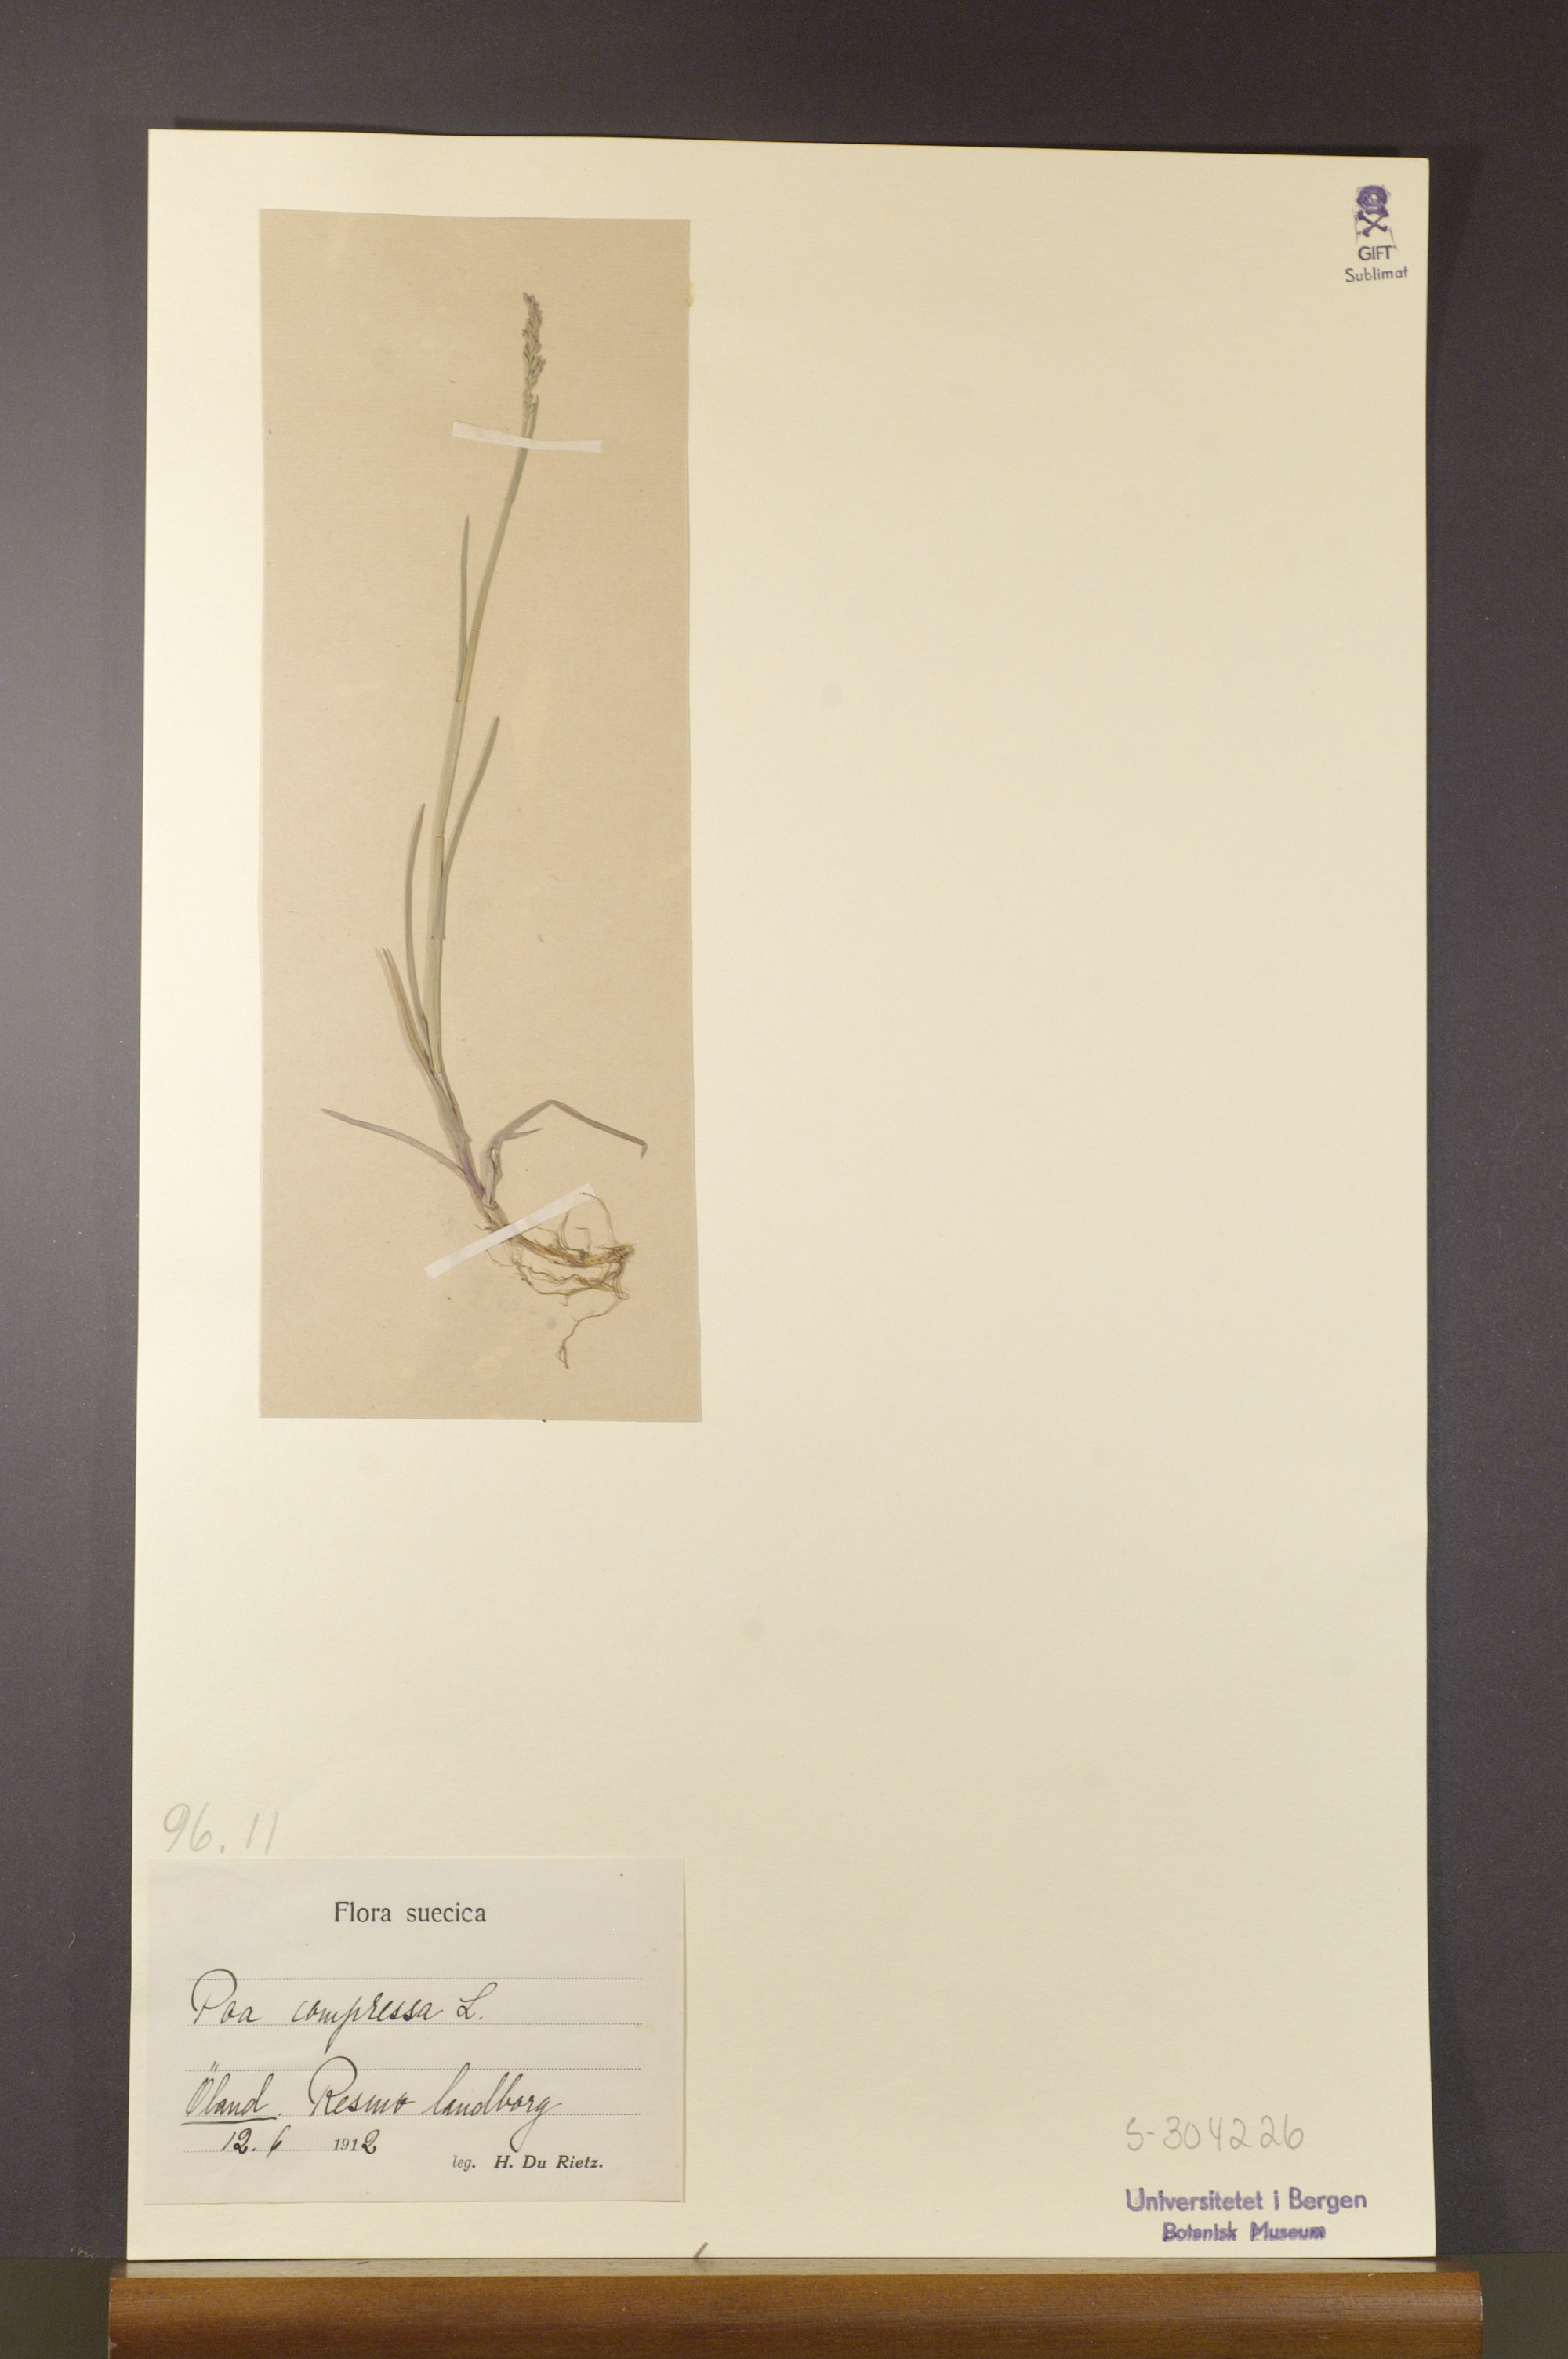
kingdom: Plantae
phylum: Tracheophyta
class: Liliopsida
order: Poales
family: Poaceae
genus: Poa
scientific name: Poa compressa
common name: Canada bluegrass
